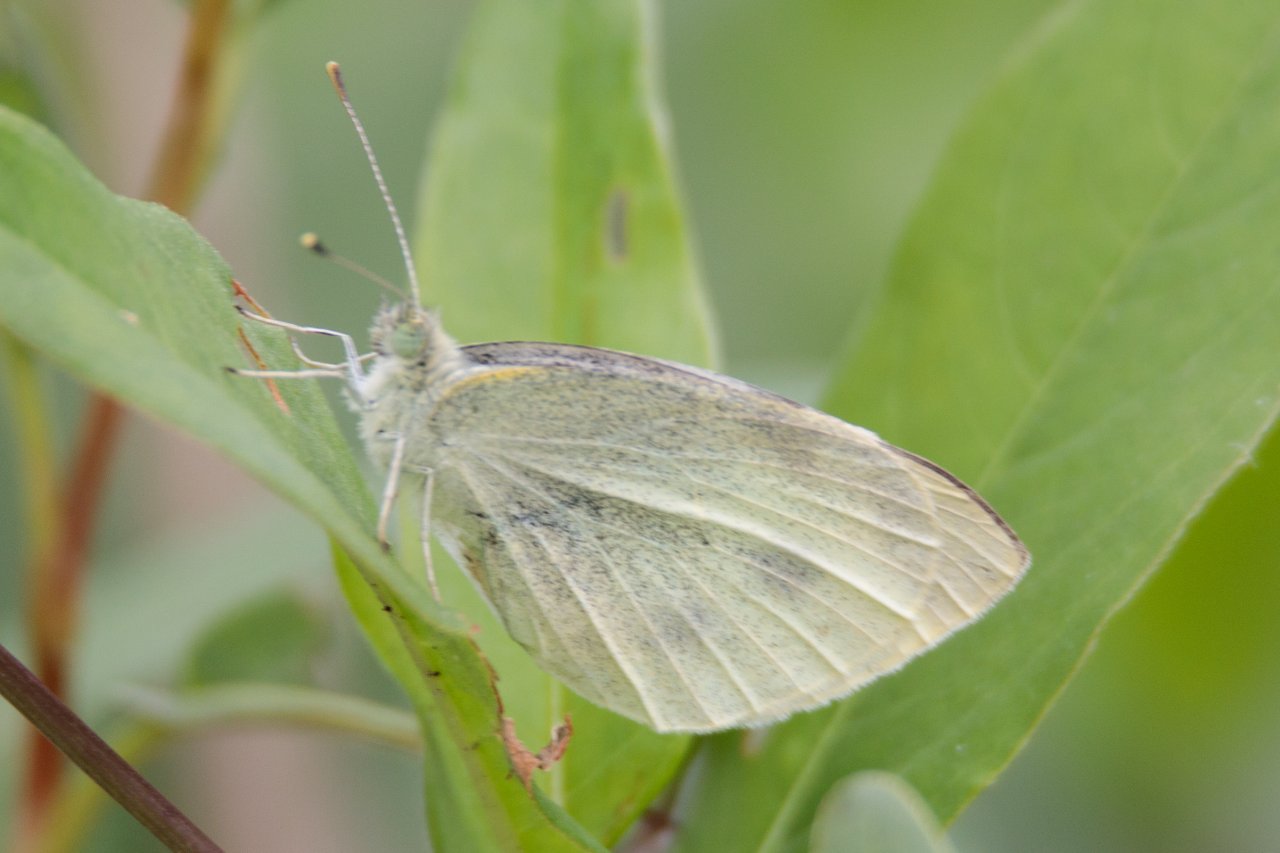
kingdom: Animalia
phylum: Arthropoda
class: Insecta
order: Lepidoptera
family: Pieridae
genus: Pieris
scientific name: Pieris rapae
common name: Cabbage White
